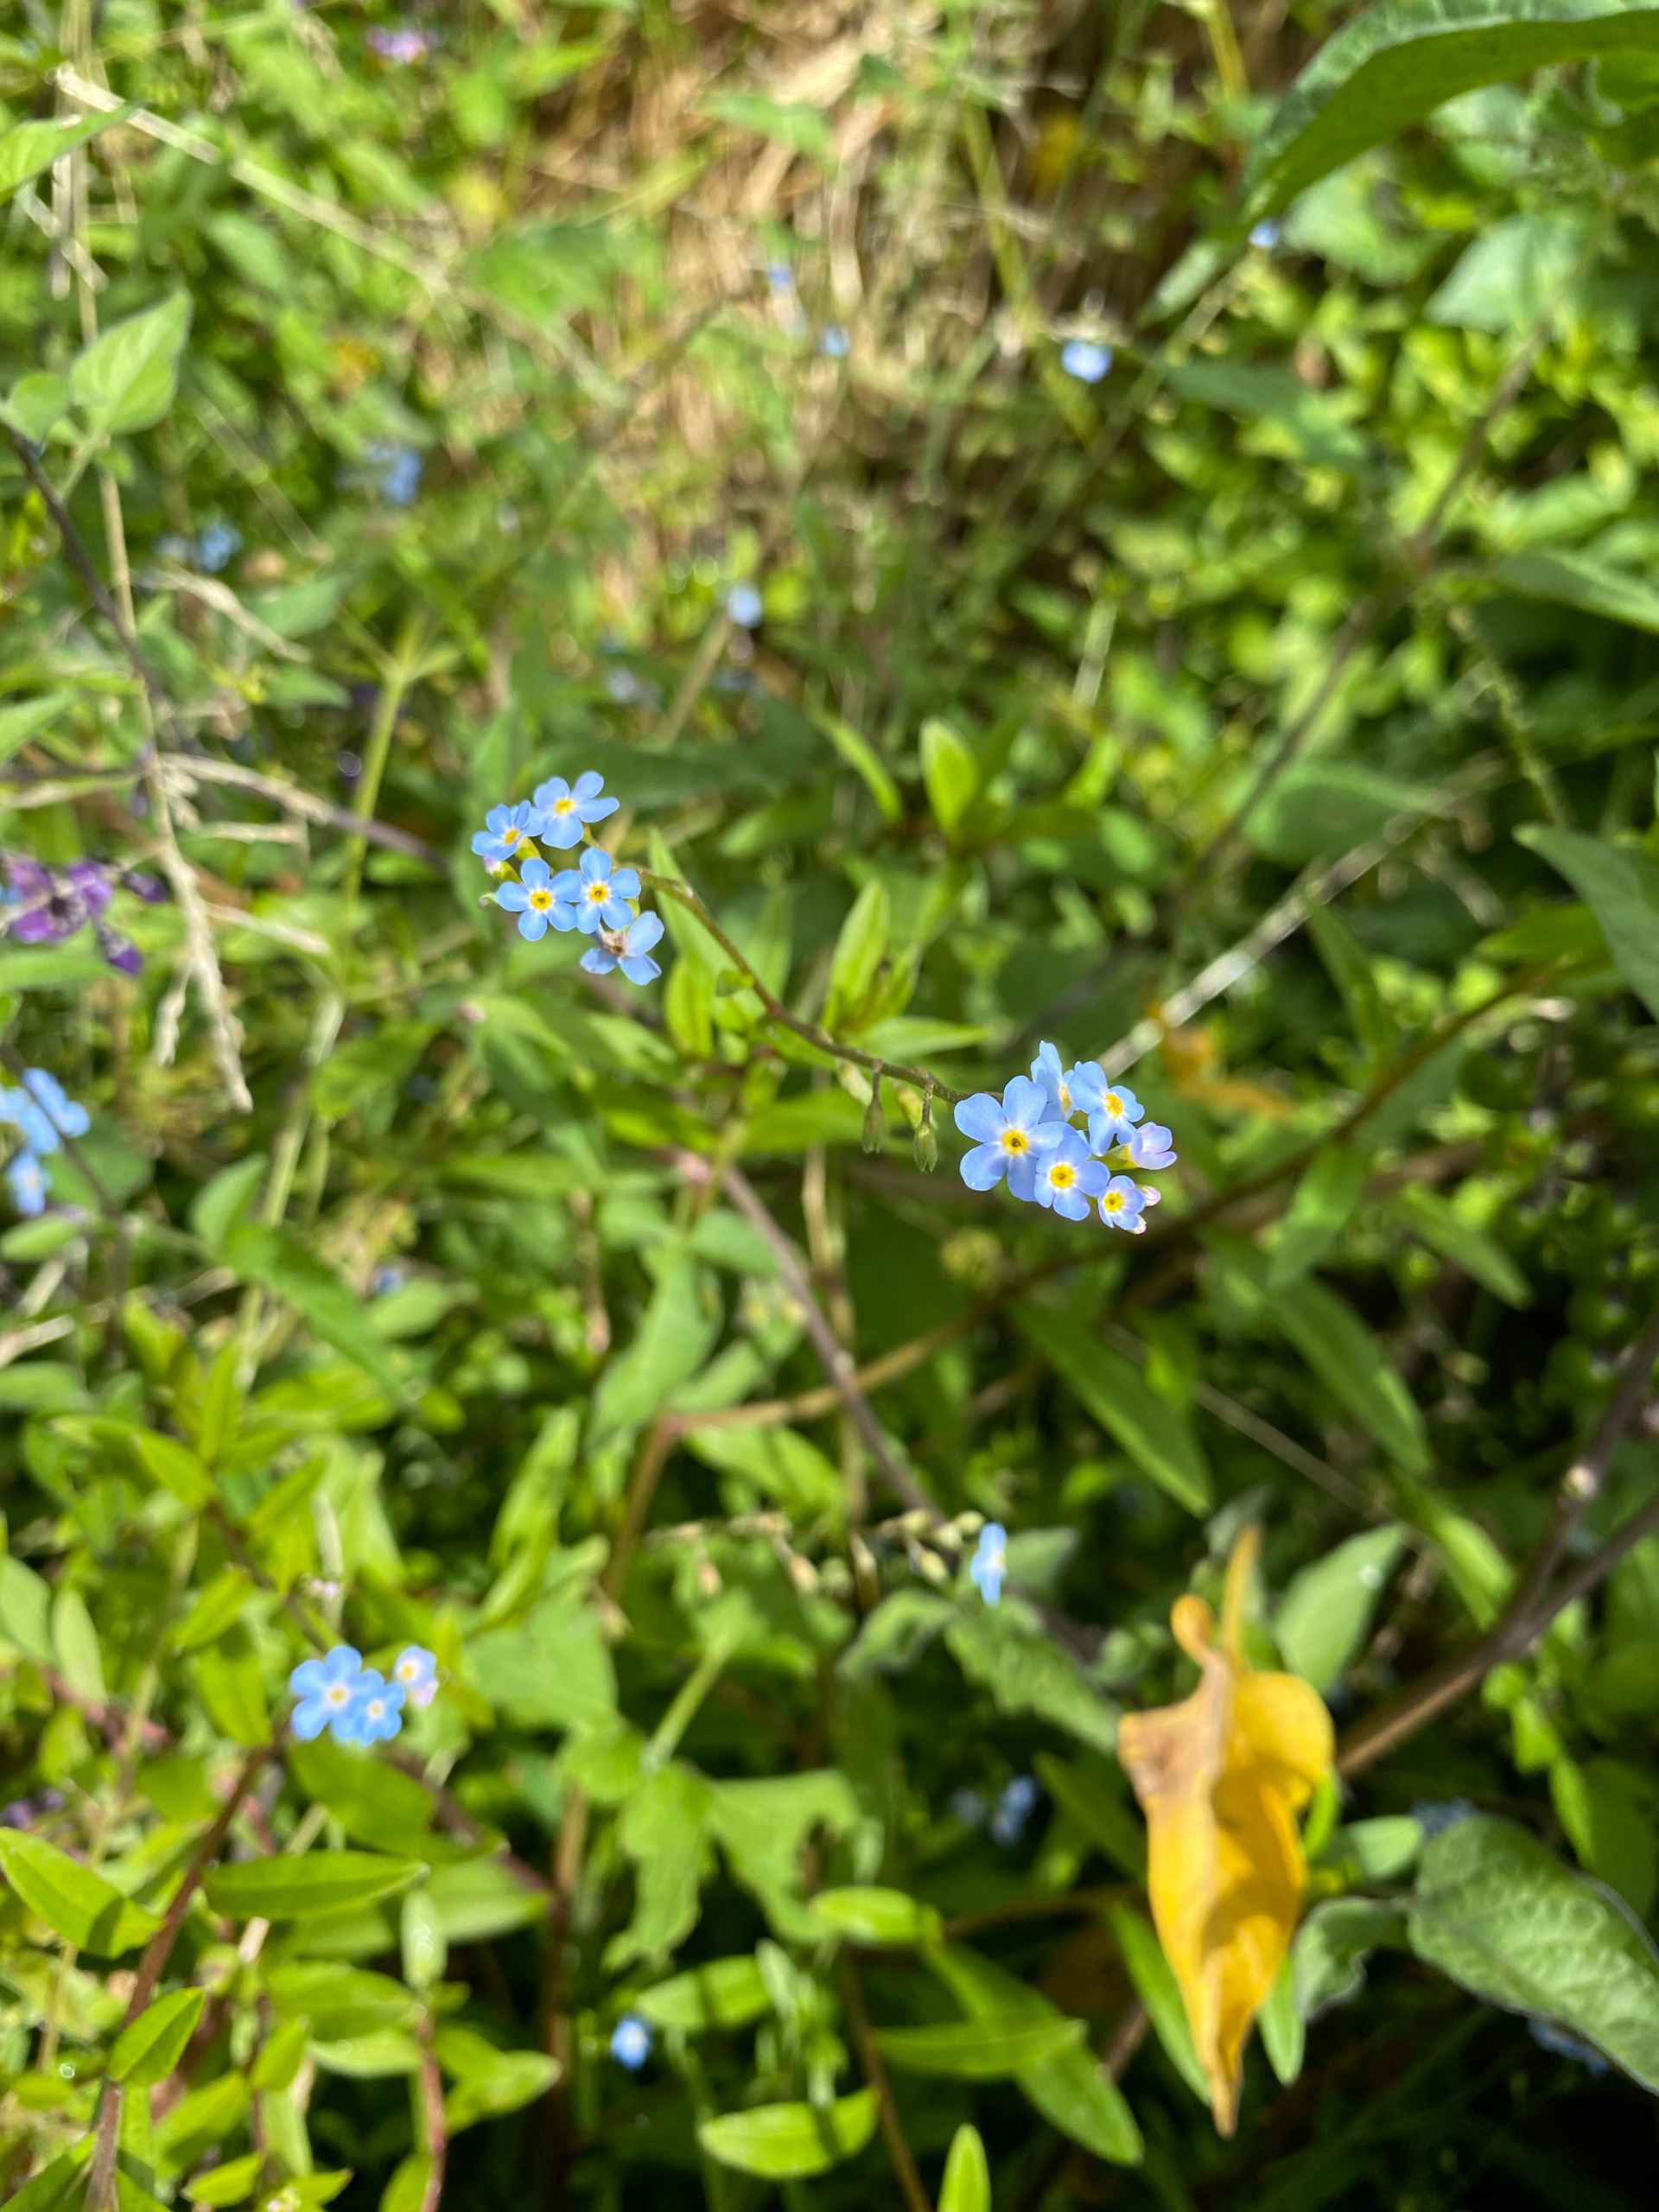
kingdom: Plantae
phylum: Tracheophyta
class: Magnoliopsida
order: Boraginales
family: Boraginaceae
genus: Myosotis
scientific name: Myosotis scorpioides
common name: Eng-forglemmigej
